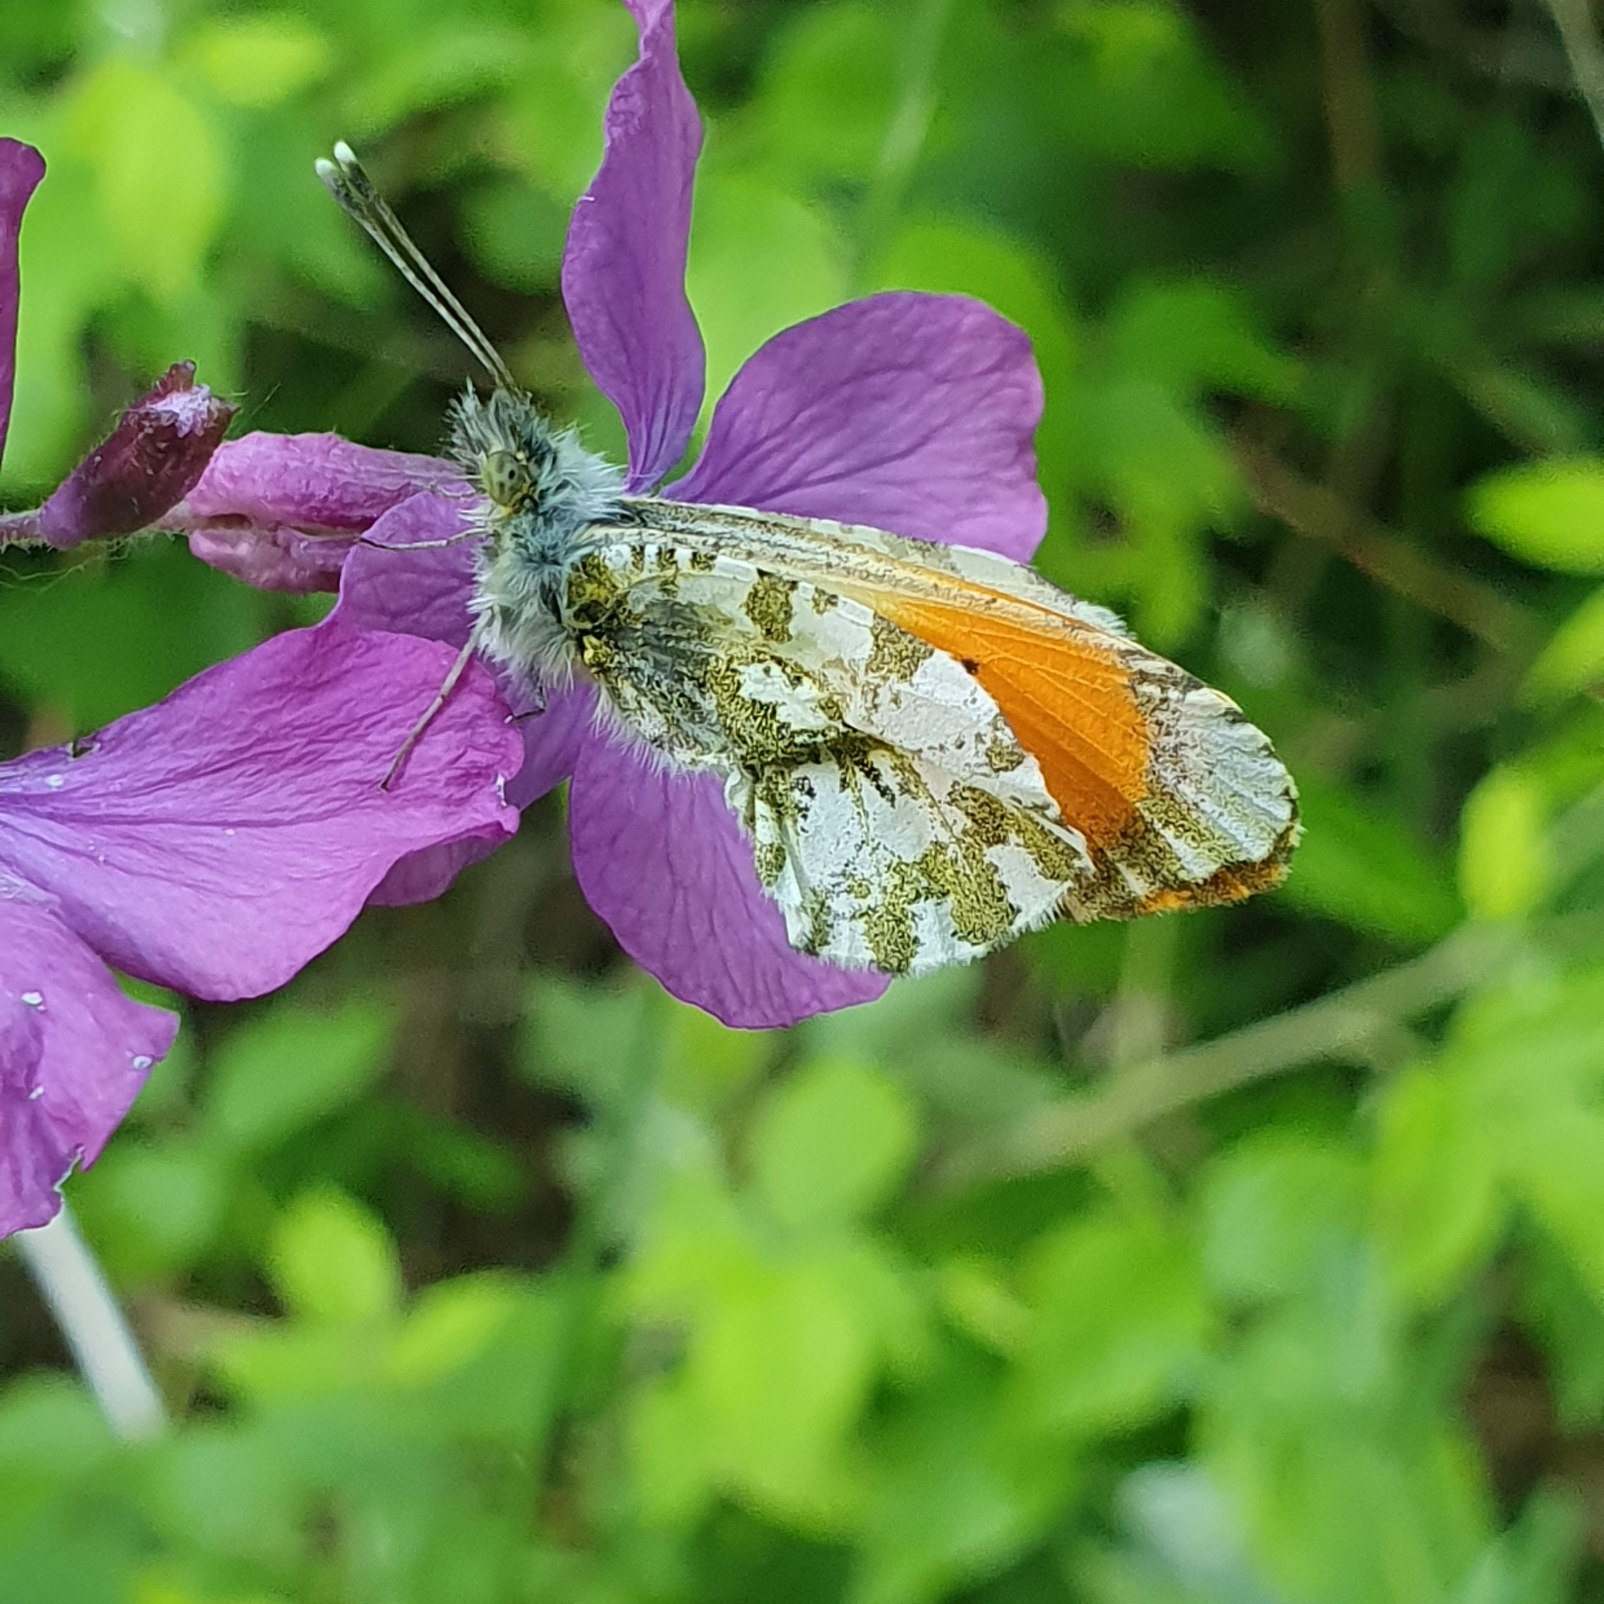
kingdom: Animalia
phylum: Arthropoda
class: Insecta
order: Lepidoptera
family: Pieridae
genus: Anthocharis
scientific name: Anthocharis cardamines
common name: Aurora
